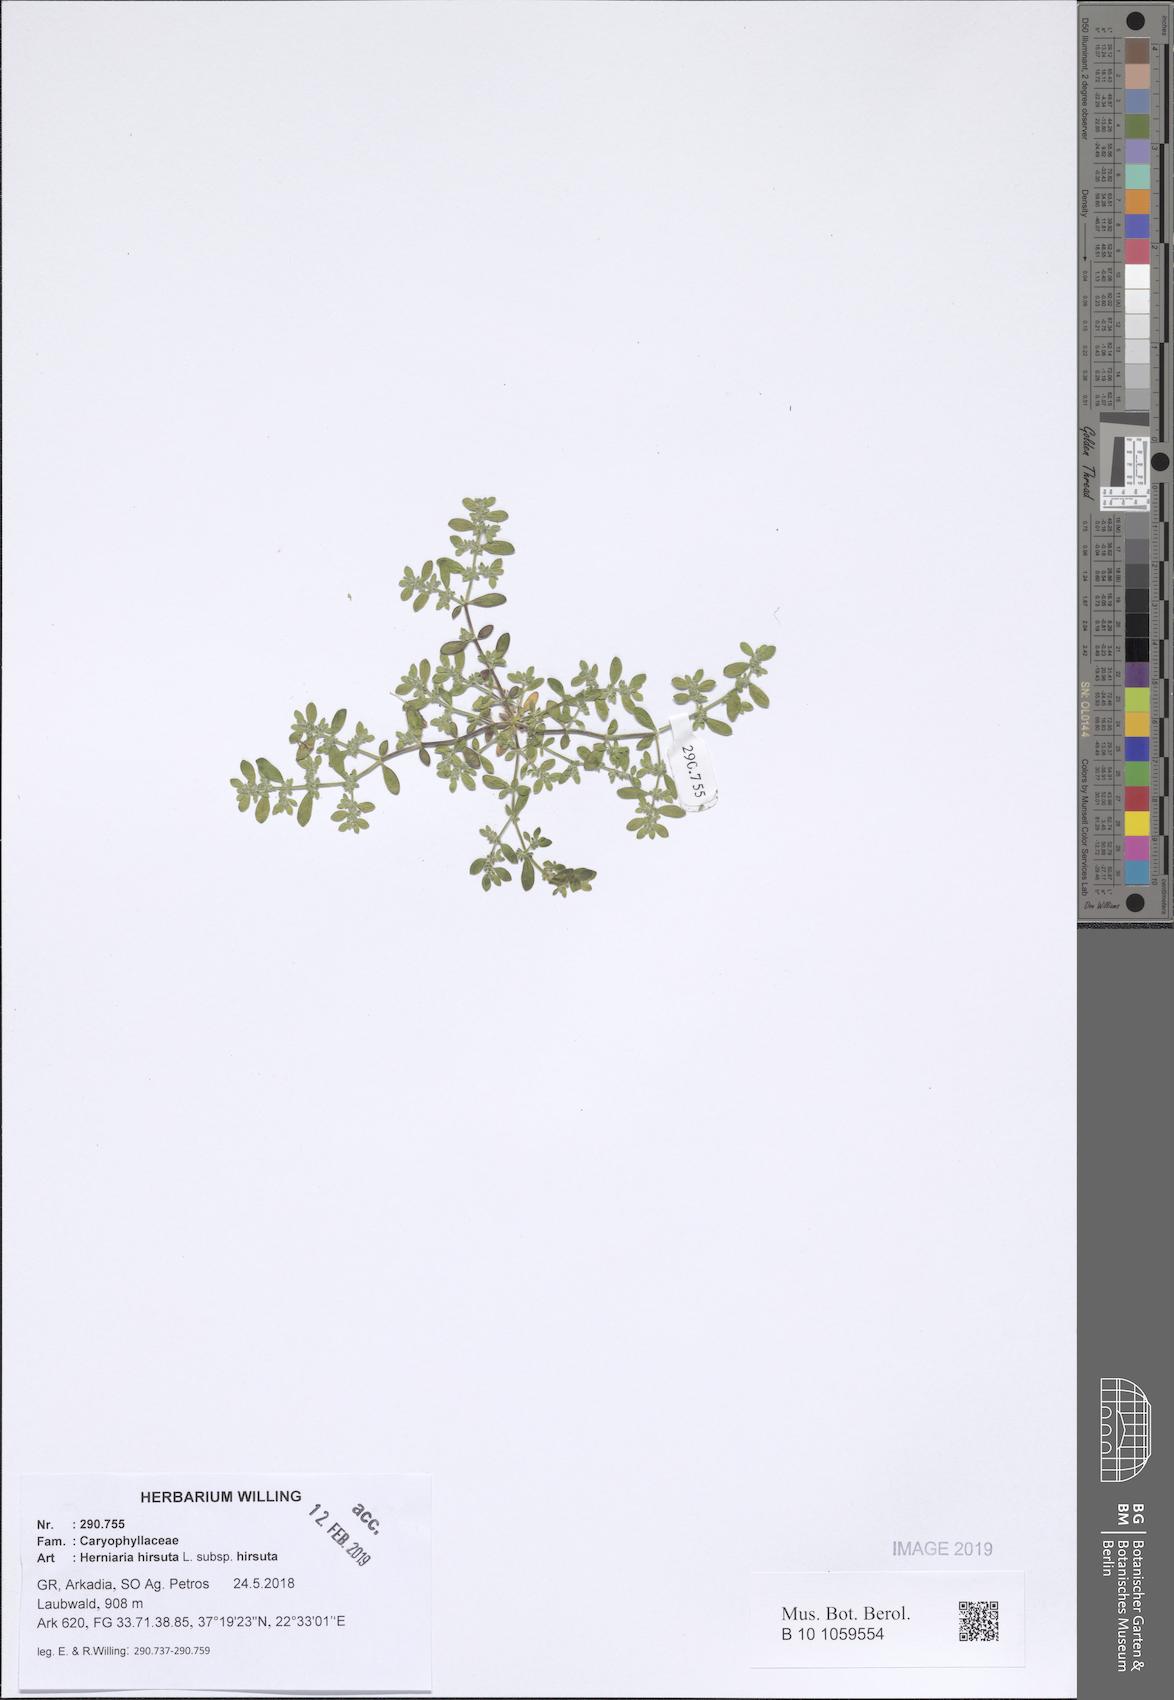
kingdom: Plantae
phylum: Tracheophyta
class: Magnoliopsida
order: Caryophyllales
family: Caryophyllaceae
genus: Herniaria
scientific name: Herniaria hirsuta
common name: Hairy rupturewort
